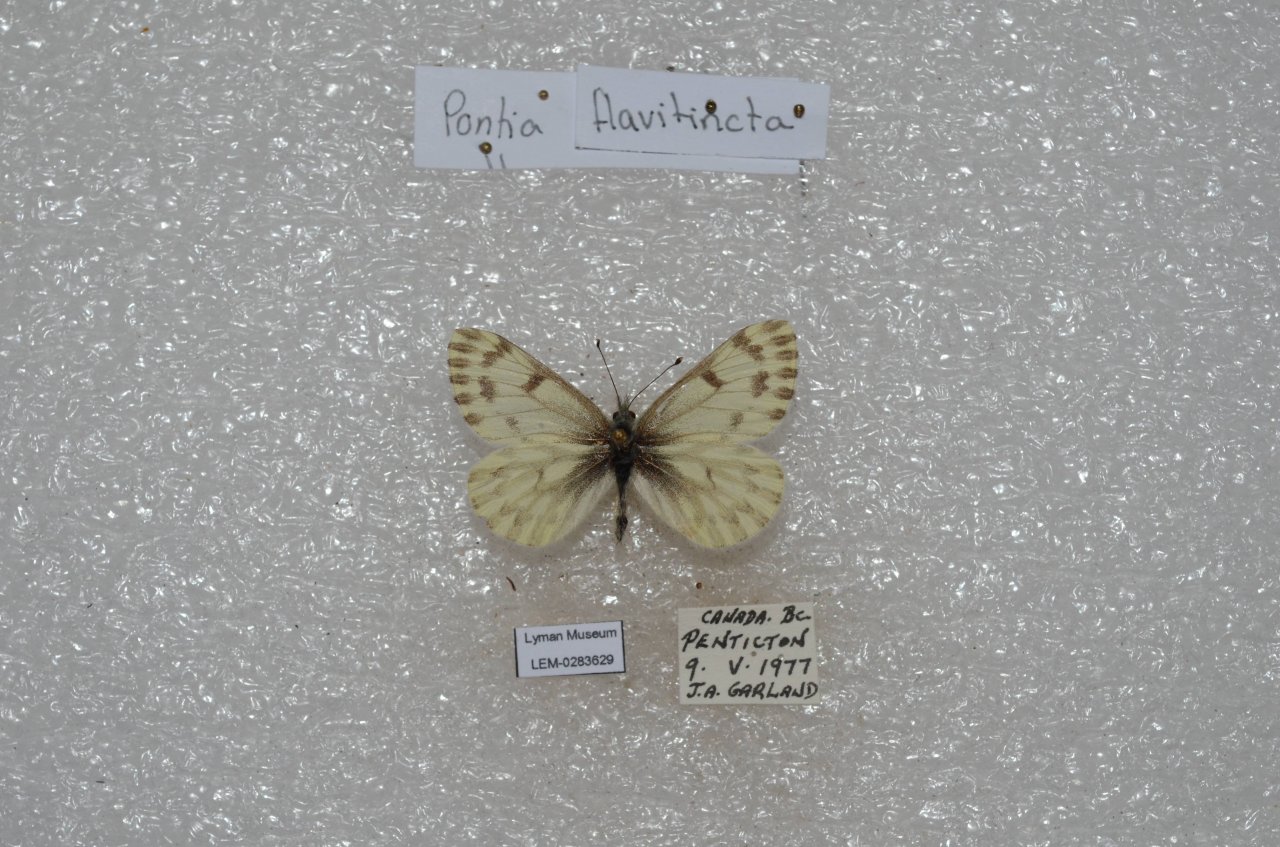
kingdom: Animalia
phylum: Arthropoda
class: Insecta
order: Lepidoptera
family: Pieridae
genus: Pontia
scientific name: Pontia sisymbrii
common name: Spring White
